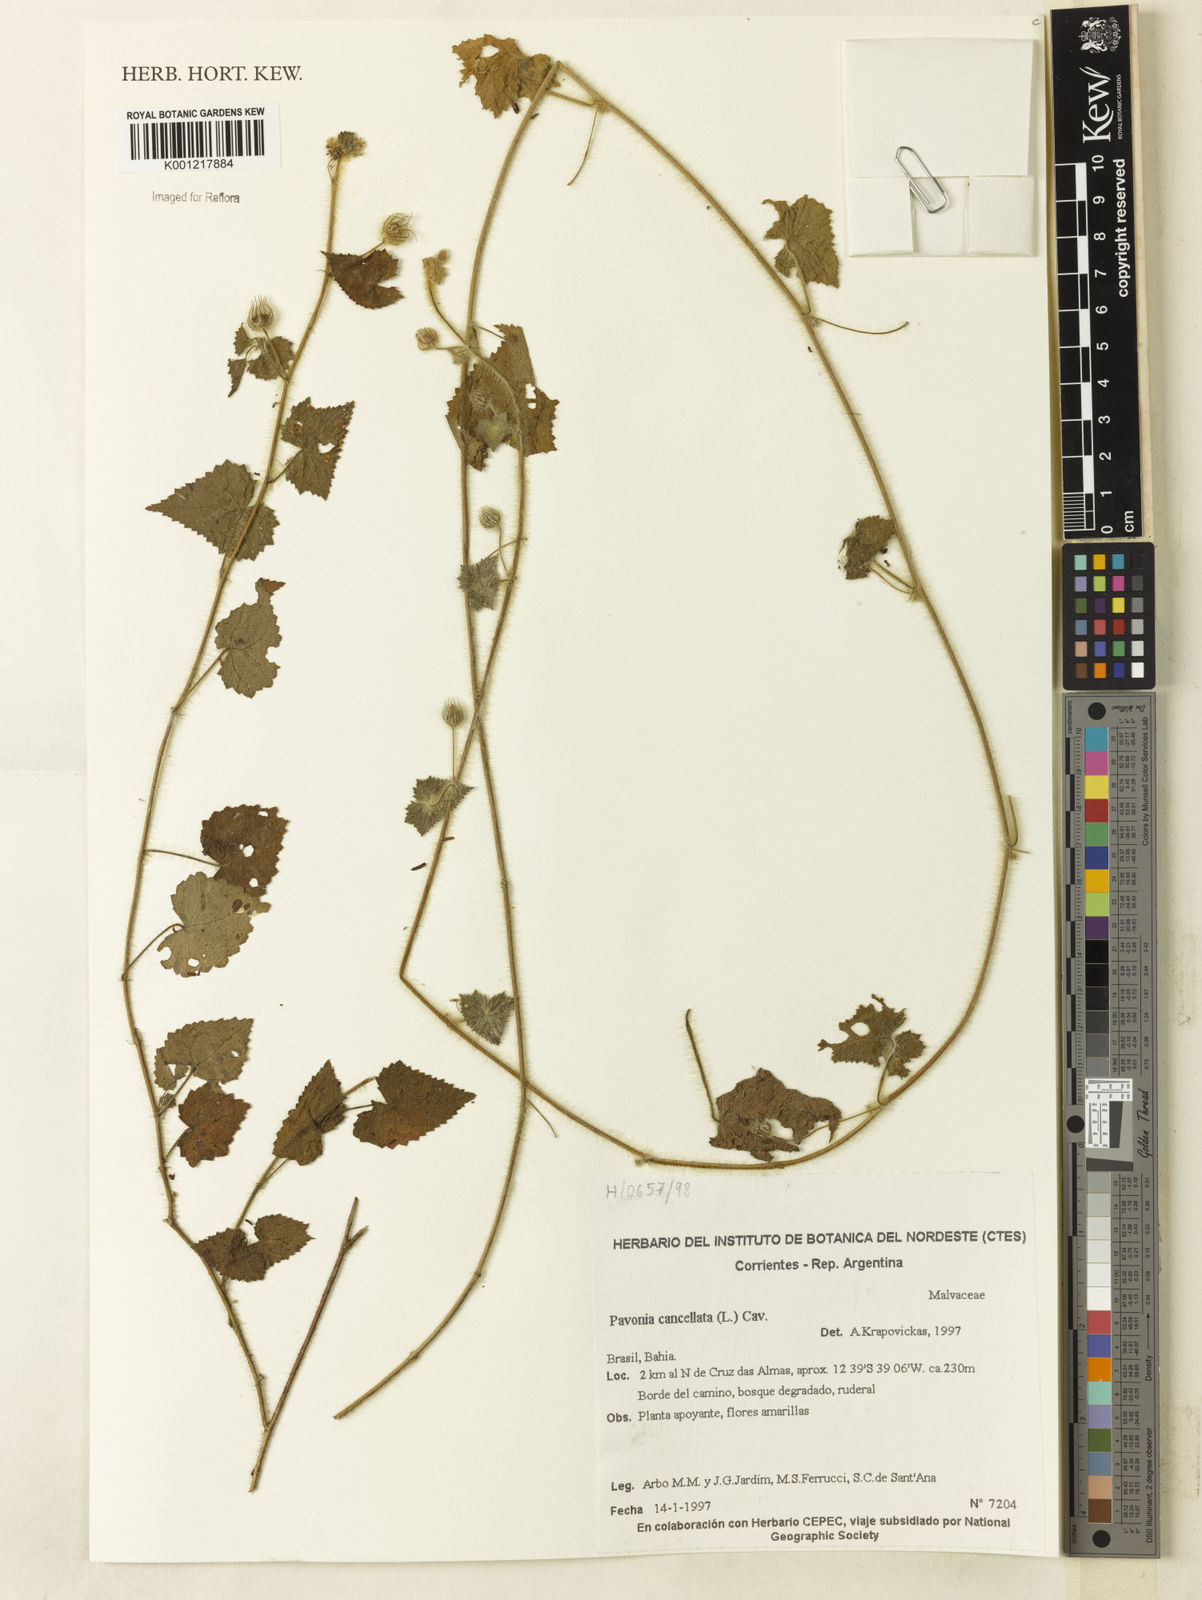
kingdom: Plantae
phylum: Tracheophyta
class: Magnoliopsida
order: Malvales
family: Malvaceae
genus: Pavonia
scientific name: Pavonia cancellata
